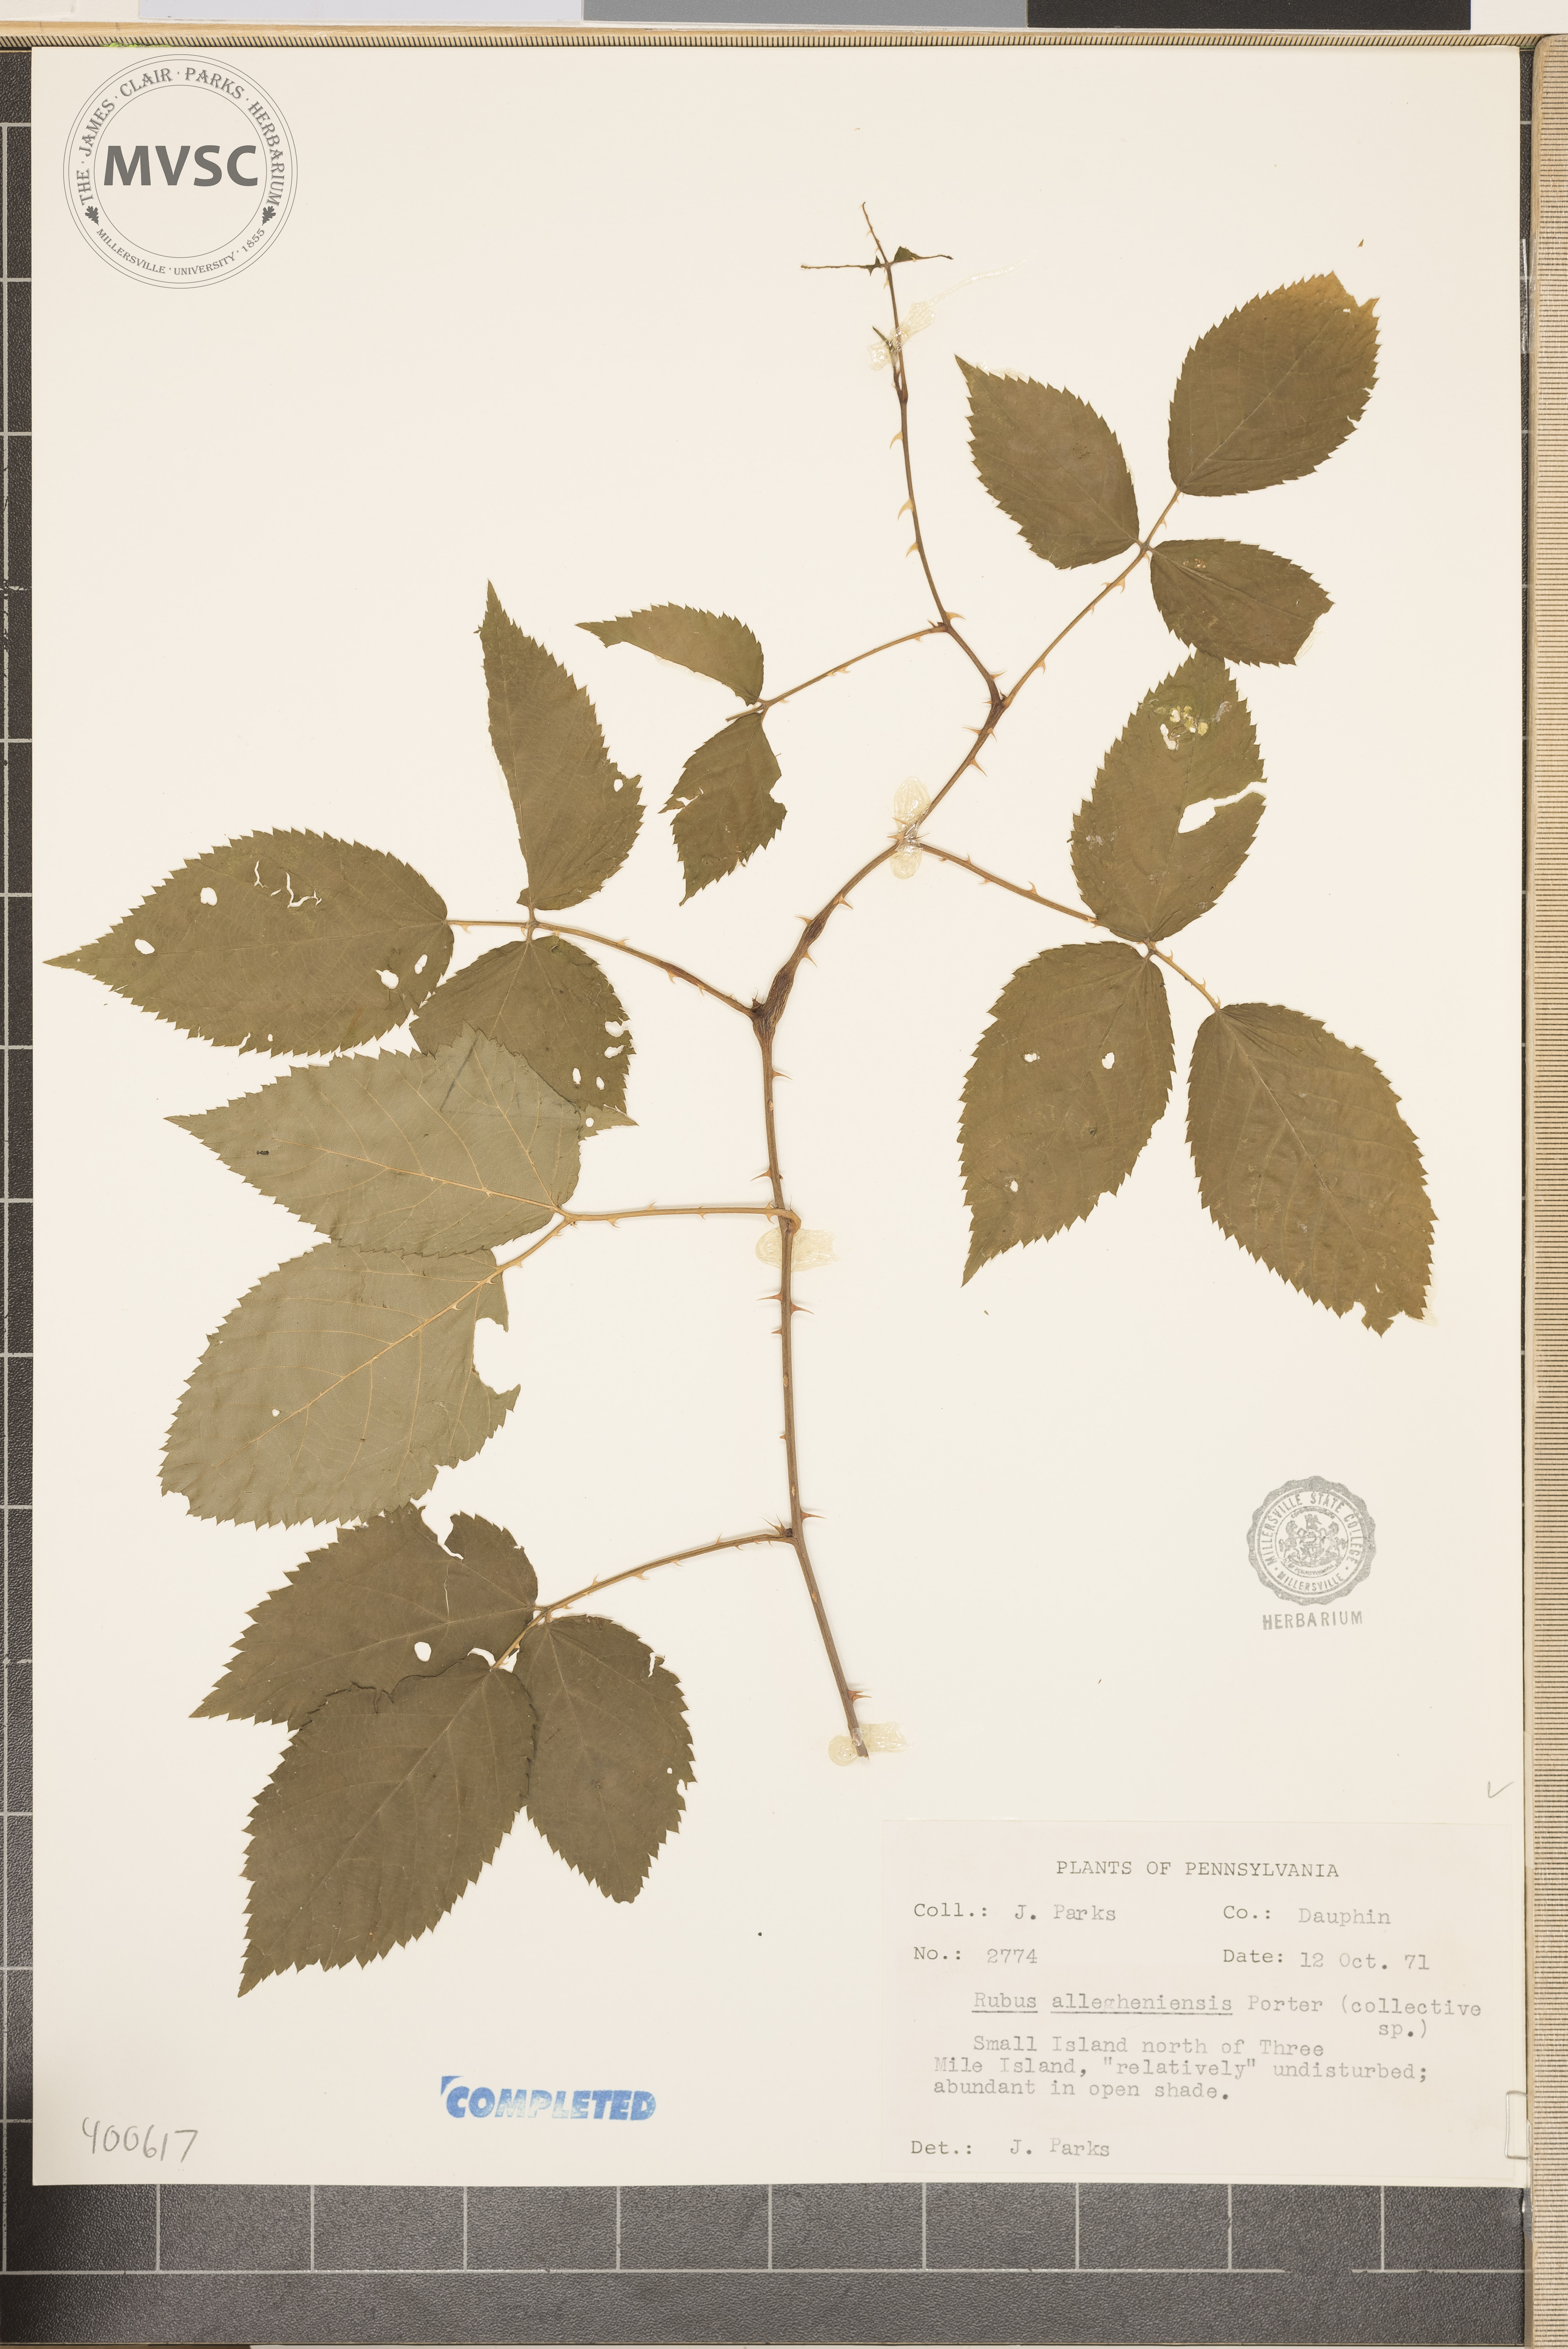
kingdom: Plantae
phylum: Tracheophyta
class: Magnoliopsida
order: Rosales
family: Rosaceae
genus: Rubus
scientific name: Rubus allegheniensis
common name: common blackberry
